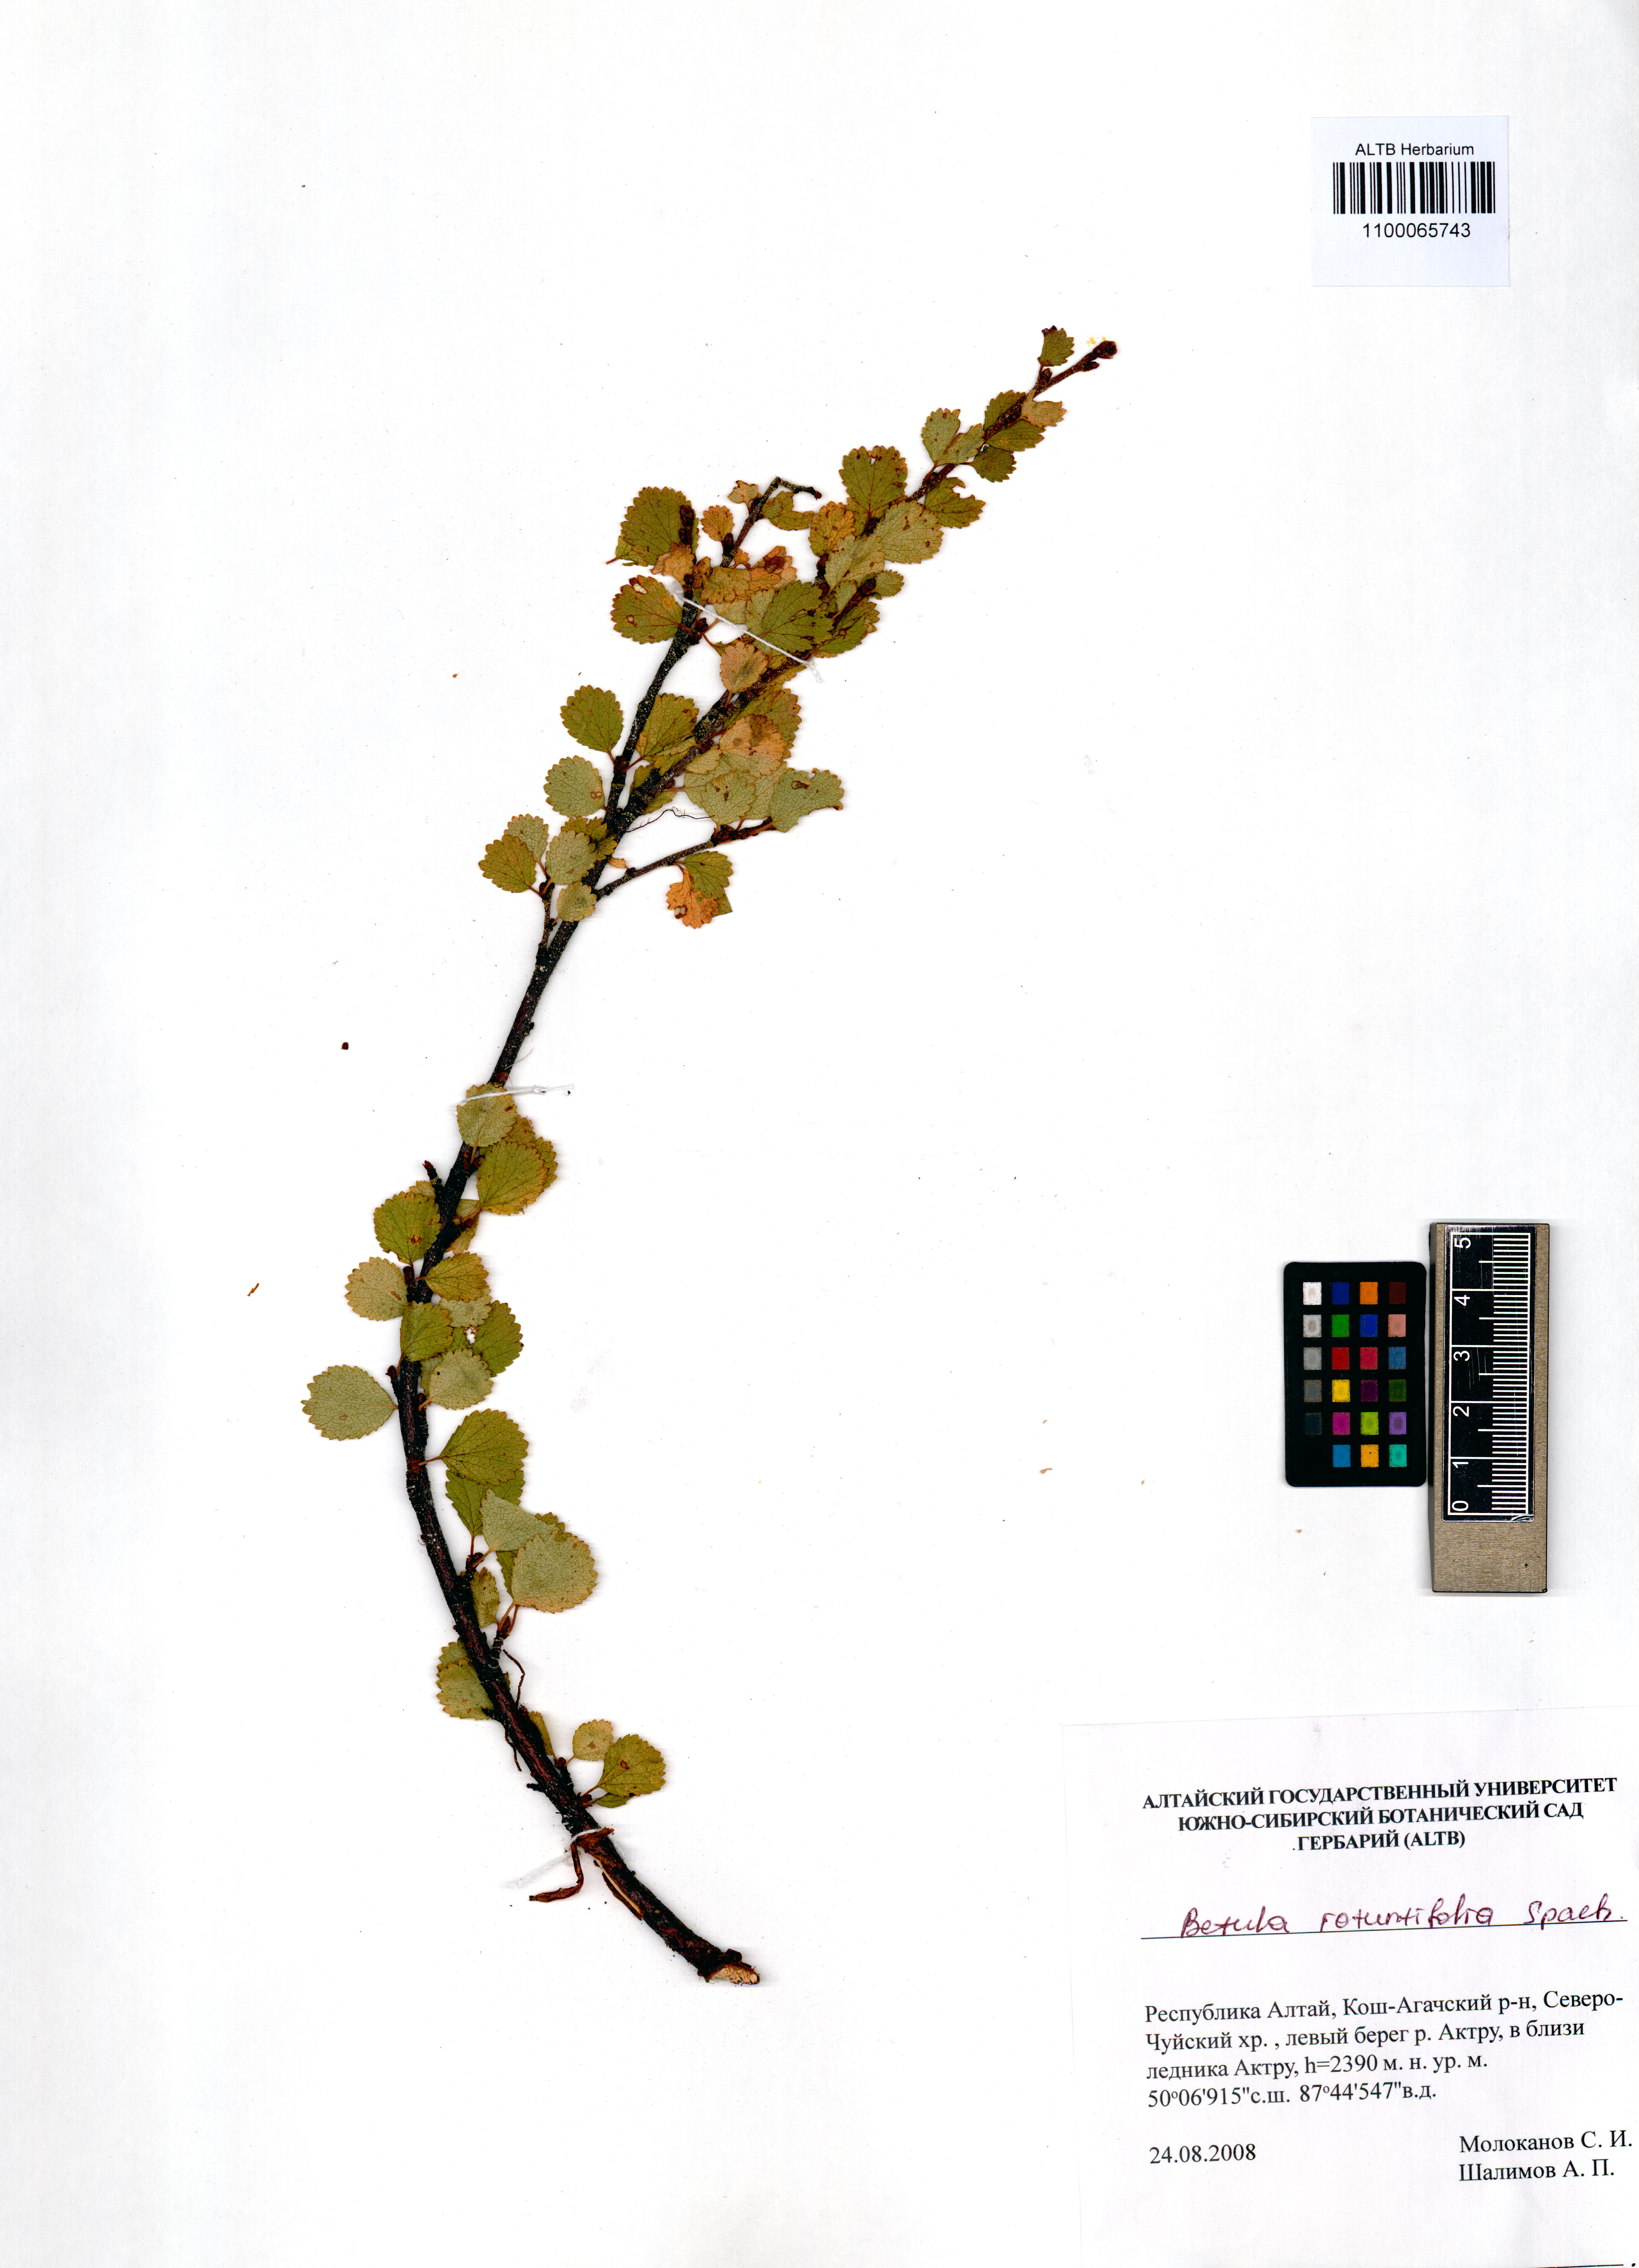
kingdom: Plantae
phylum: Tracheophyta
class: Magnoliopsida
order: Fagales
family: Betulaceae
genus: Betula
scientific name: Betula glandulosa
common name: Dwarf birch
